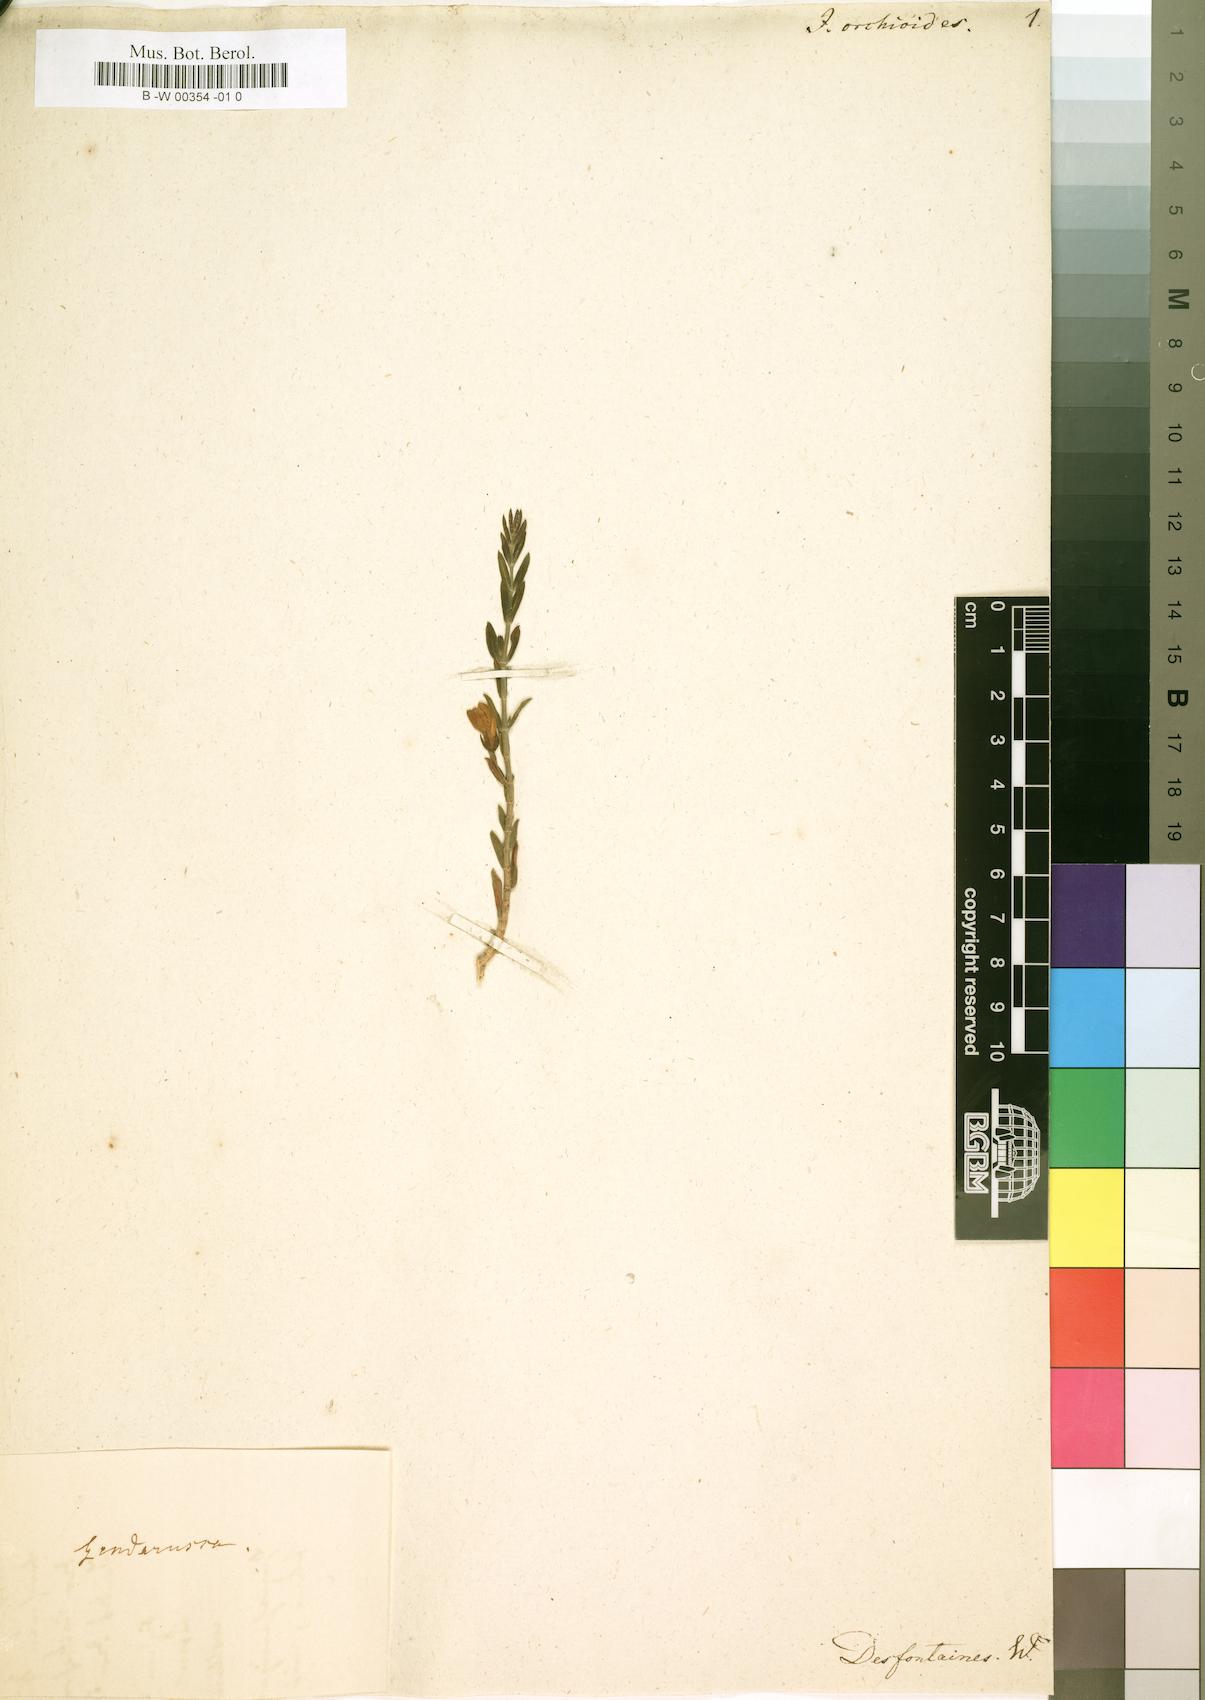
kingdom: Plantae
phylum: Tracheophyta
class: Magnoliopsida
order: Lamiales
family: Acanthaceae
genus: Justicia
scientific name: Justicia orchioides
